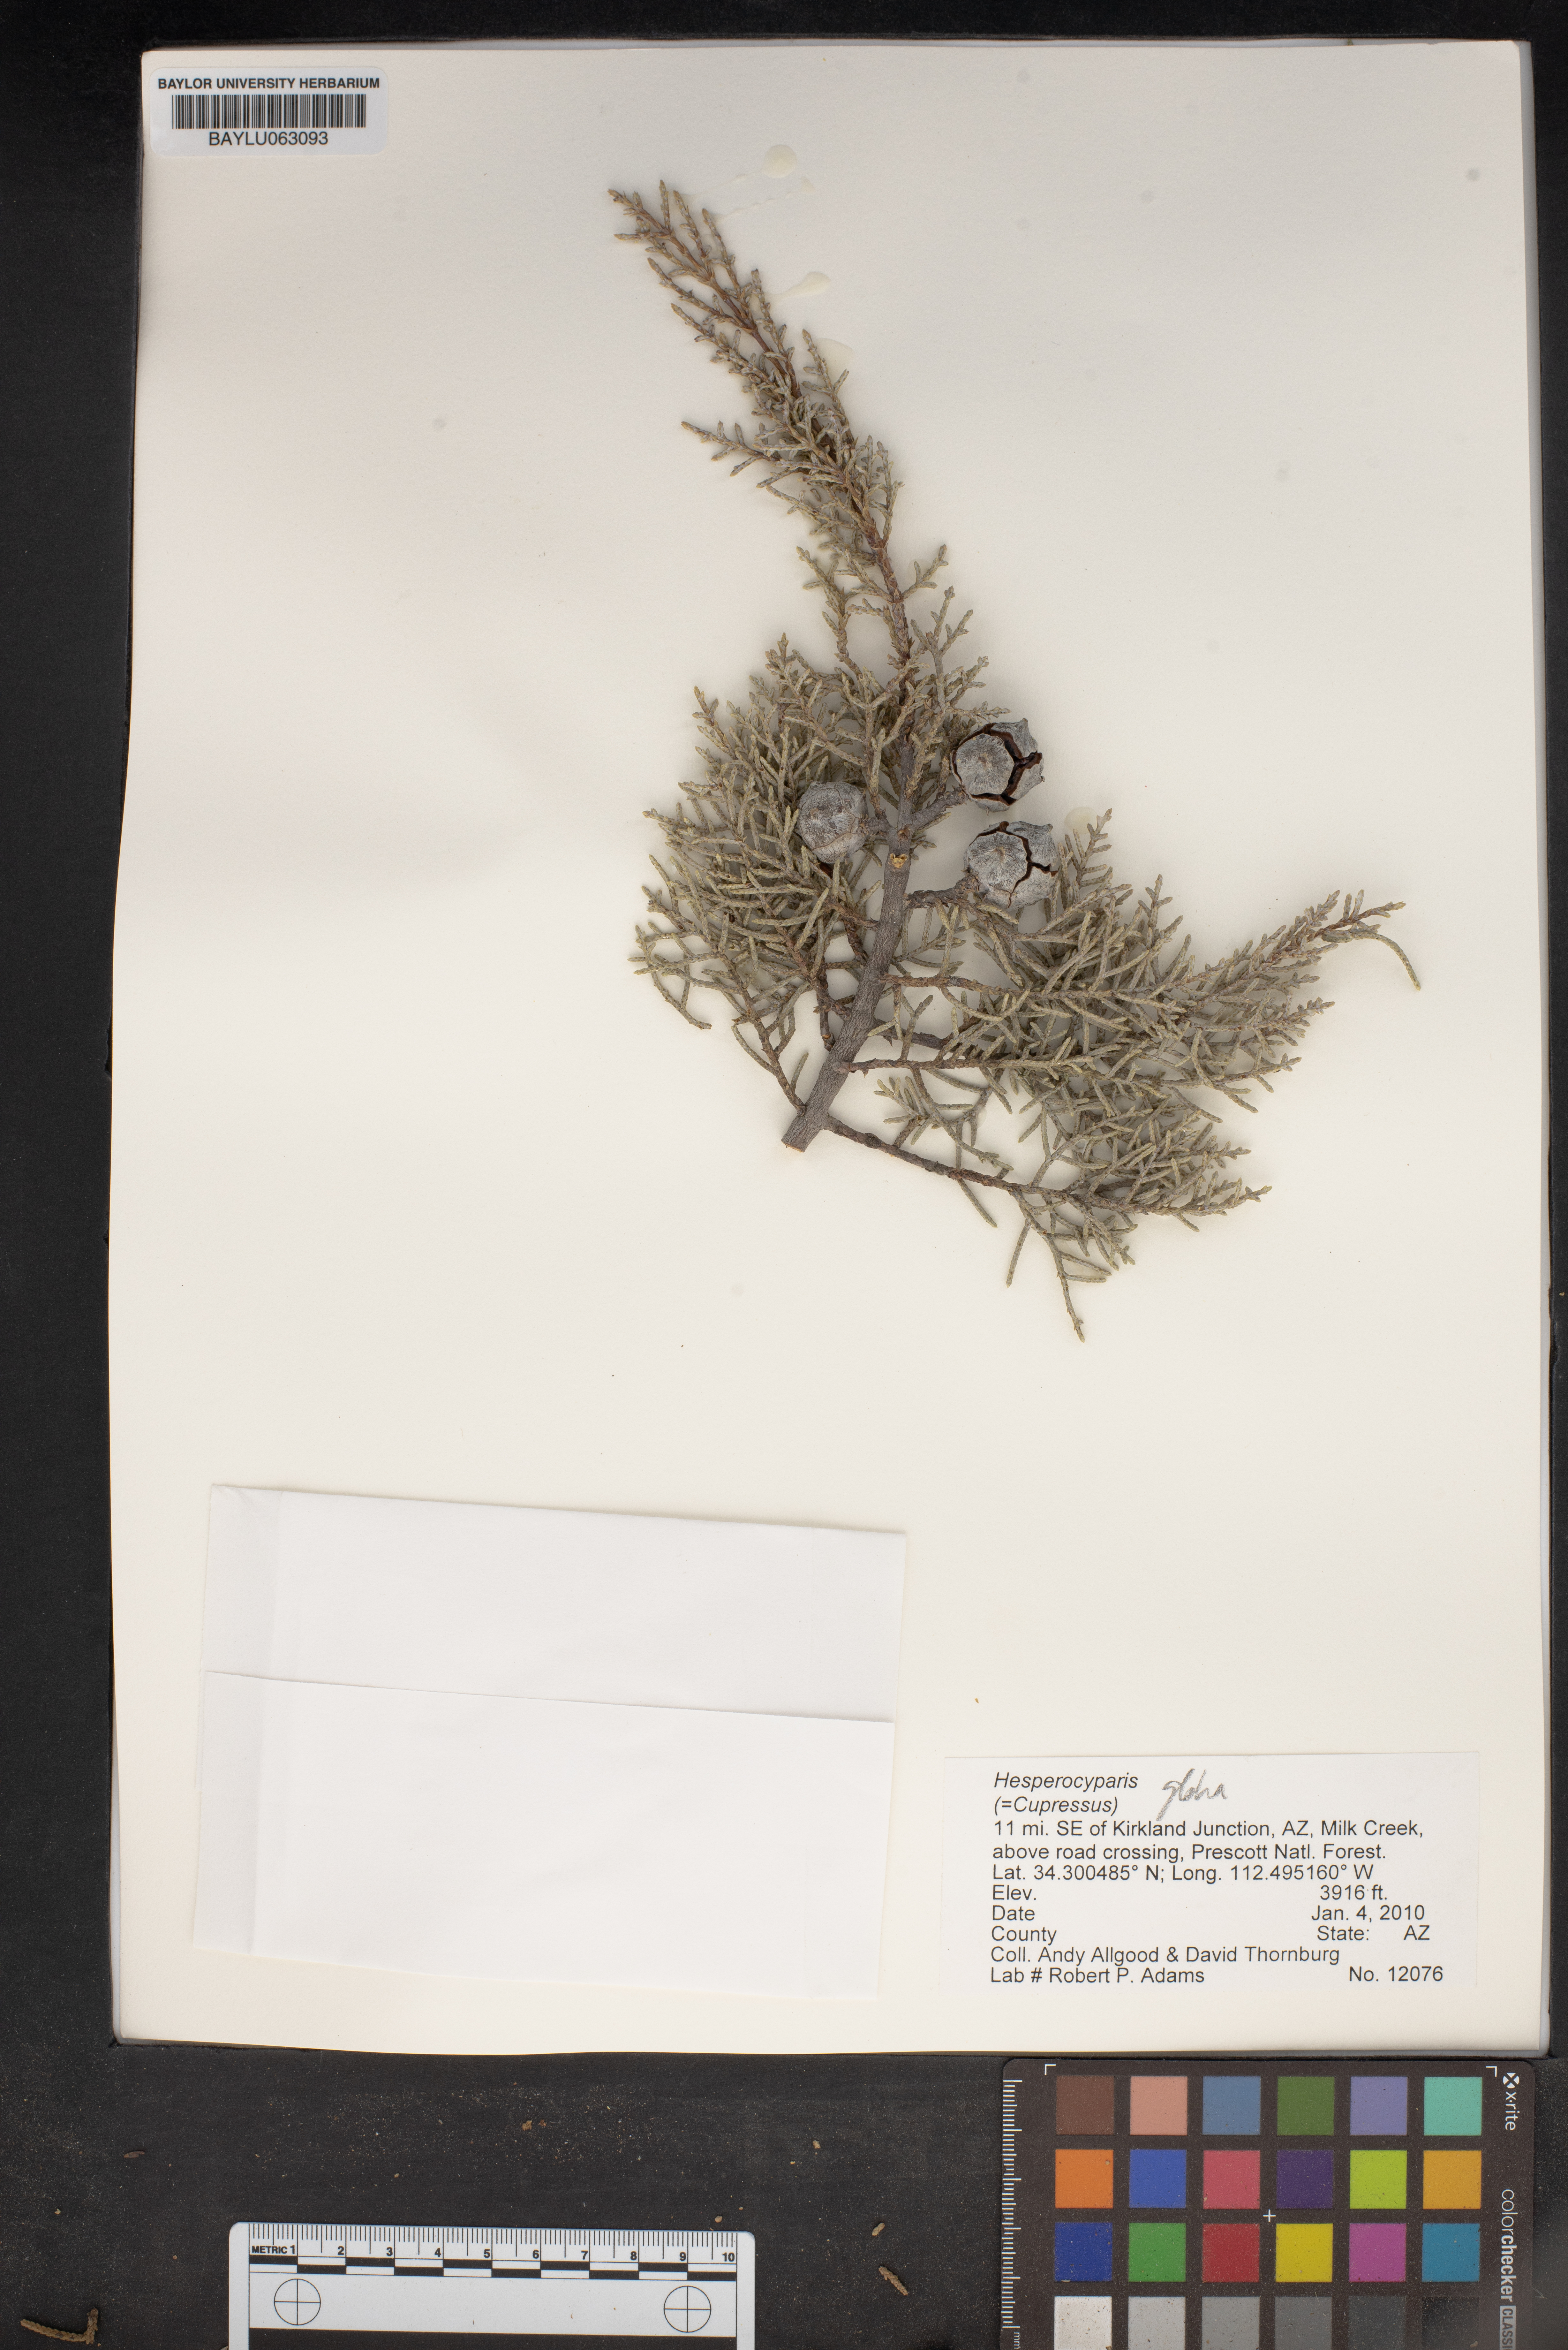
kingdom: Plantae
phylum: Tracheophyta
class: Pinopsida
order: Pinales
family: Cupressaceae
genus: Cupressus
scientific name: Cupressus arizonica
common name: Arizona cypress
